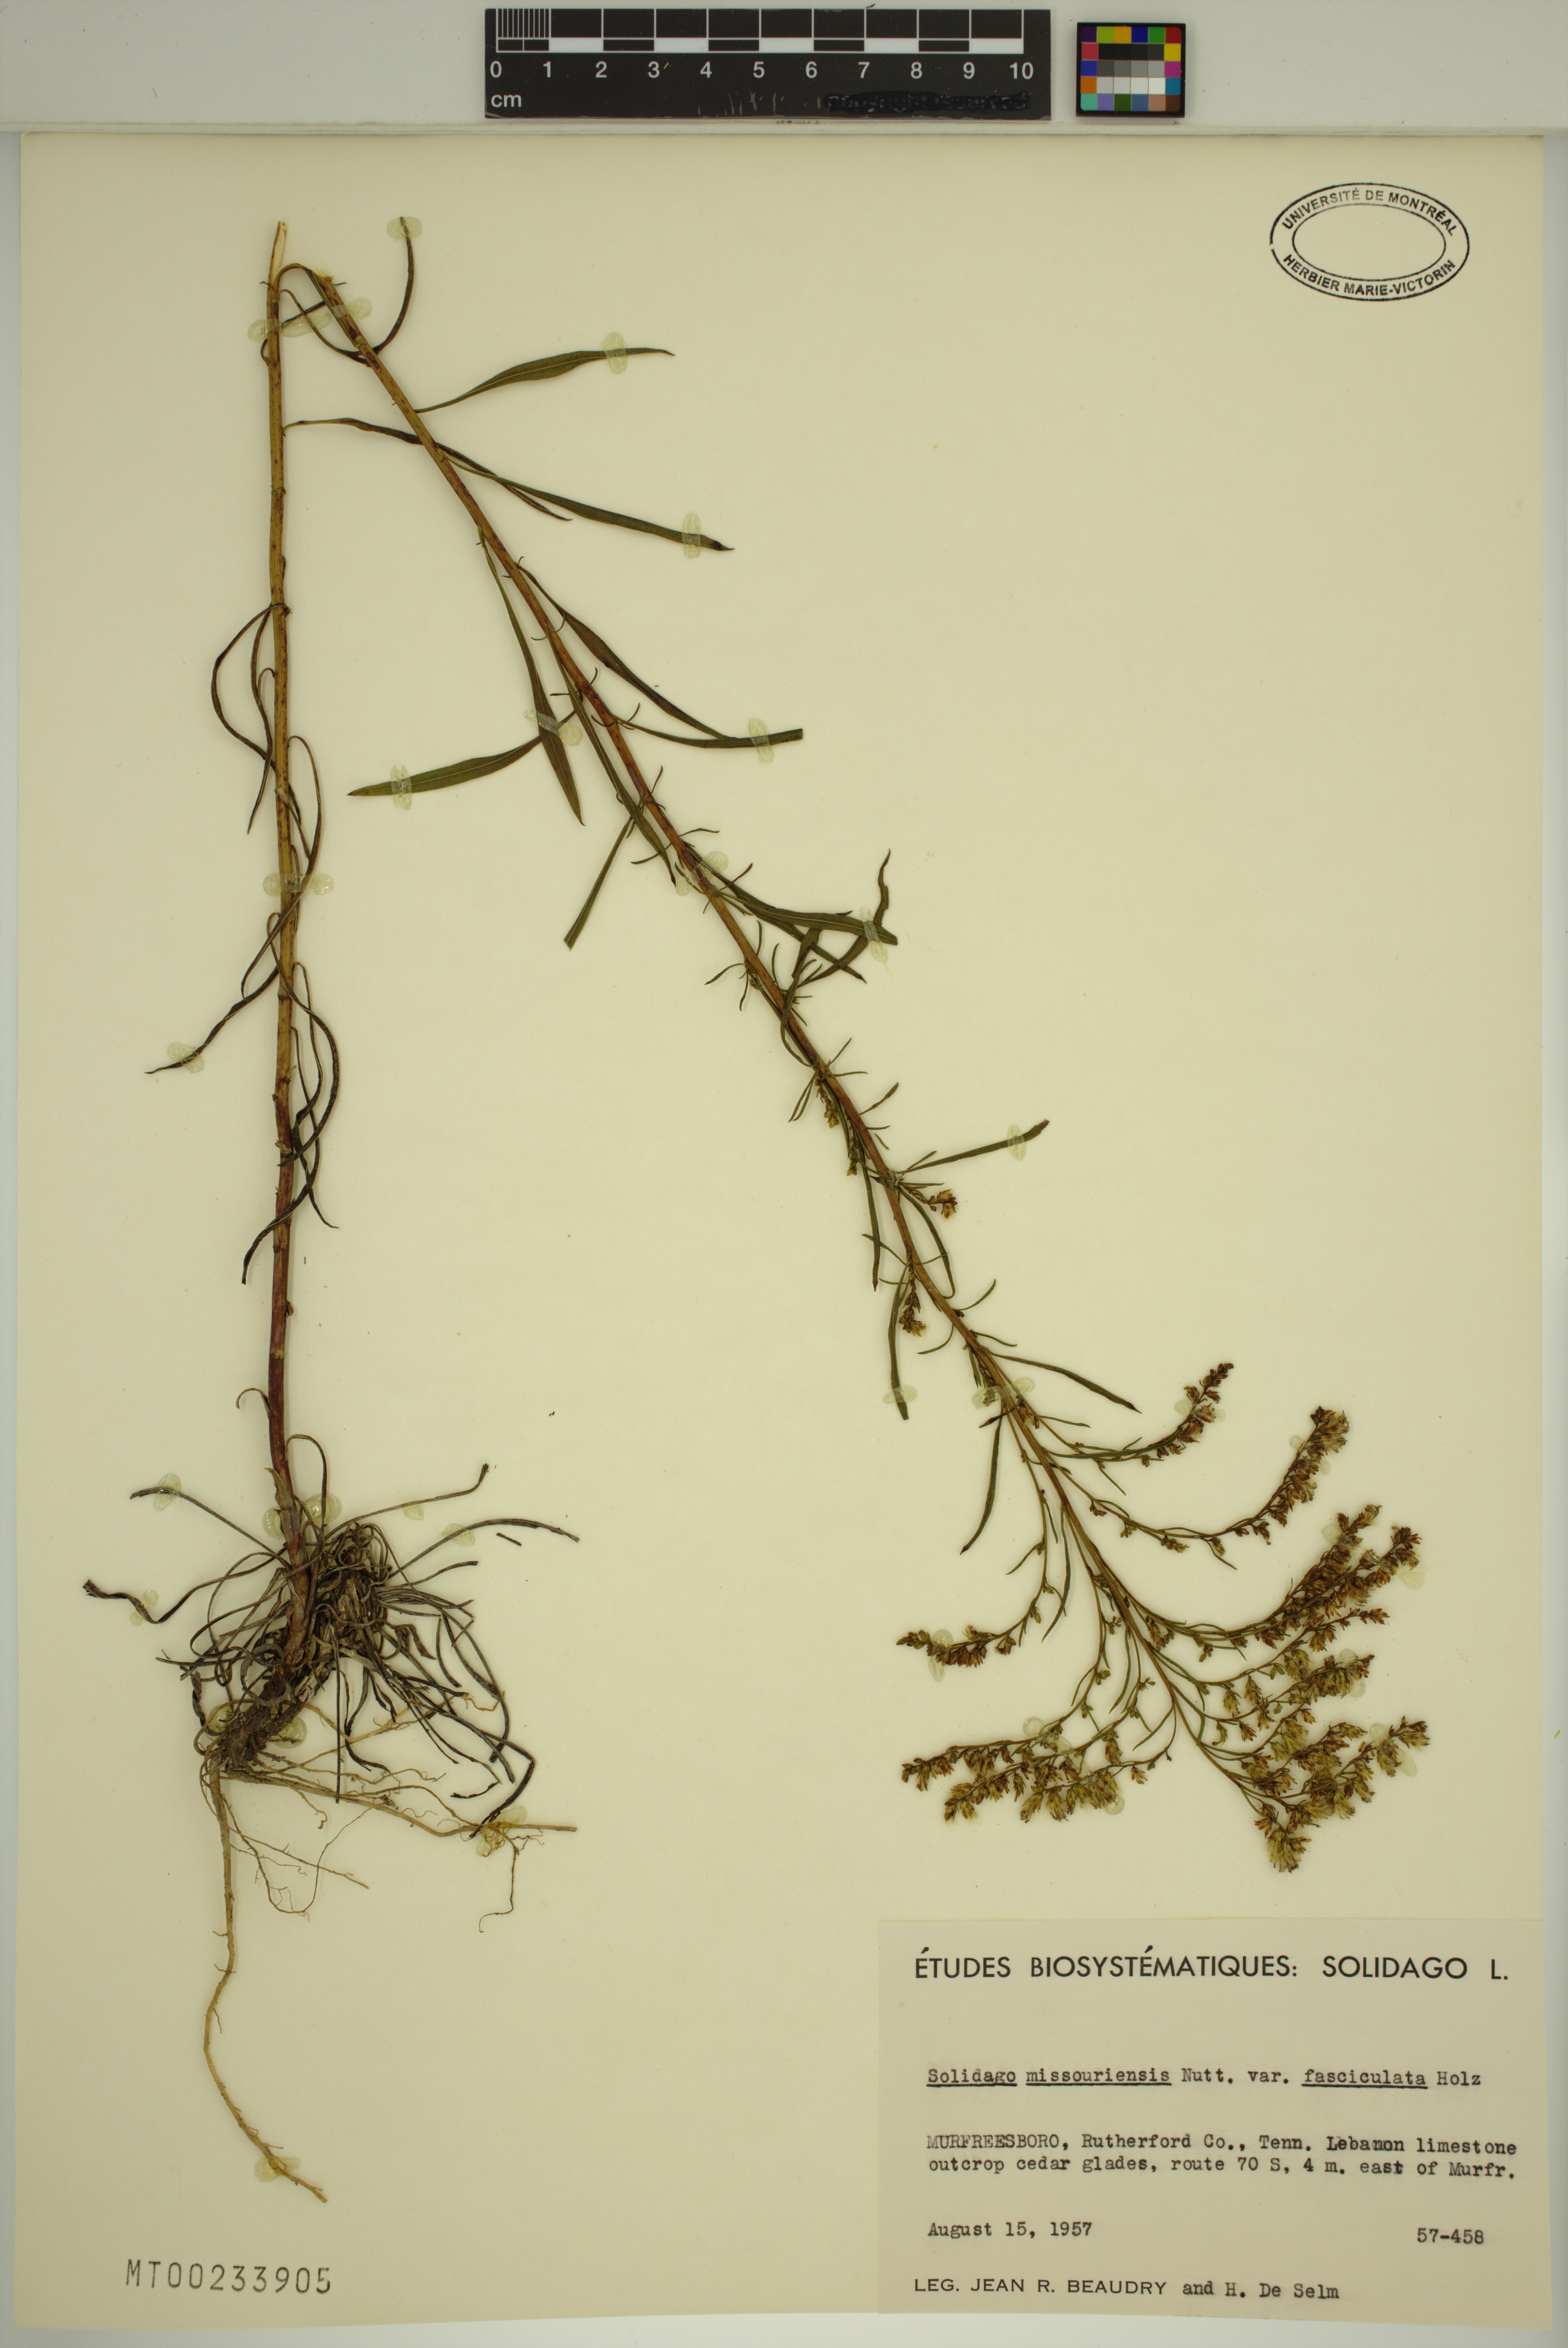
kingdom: Plantae
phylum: Tracheophyta
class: Magnoliopsida
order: Asterales
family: Asteraceae
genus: Solidago
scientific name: Solidago missouriensis
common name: Prairie goldenrod
